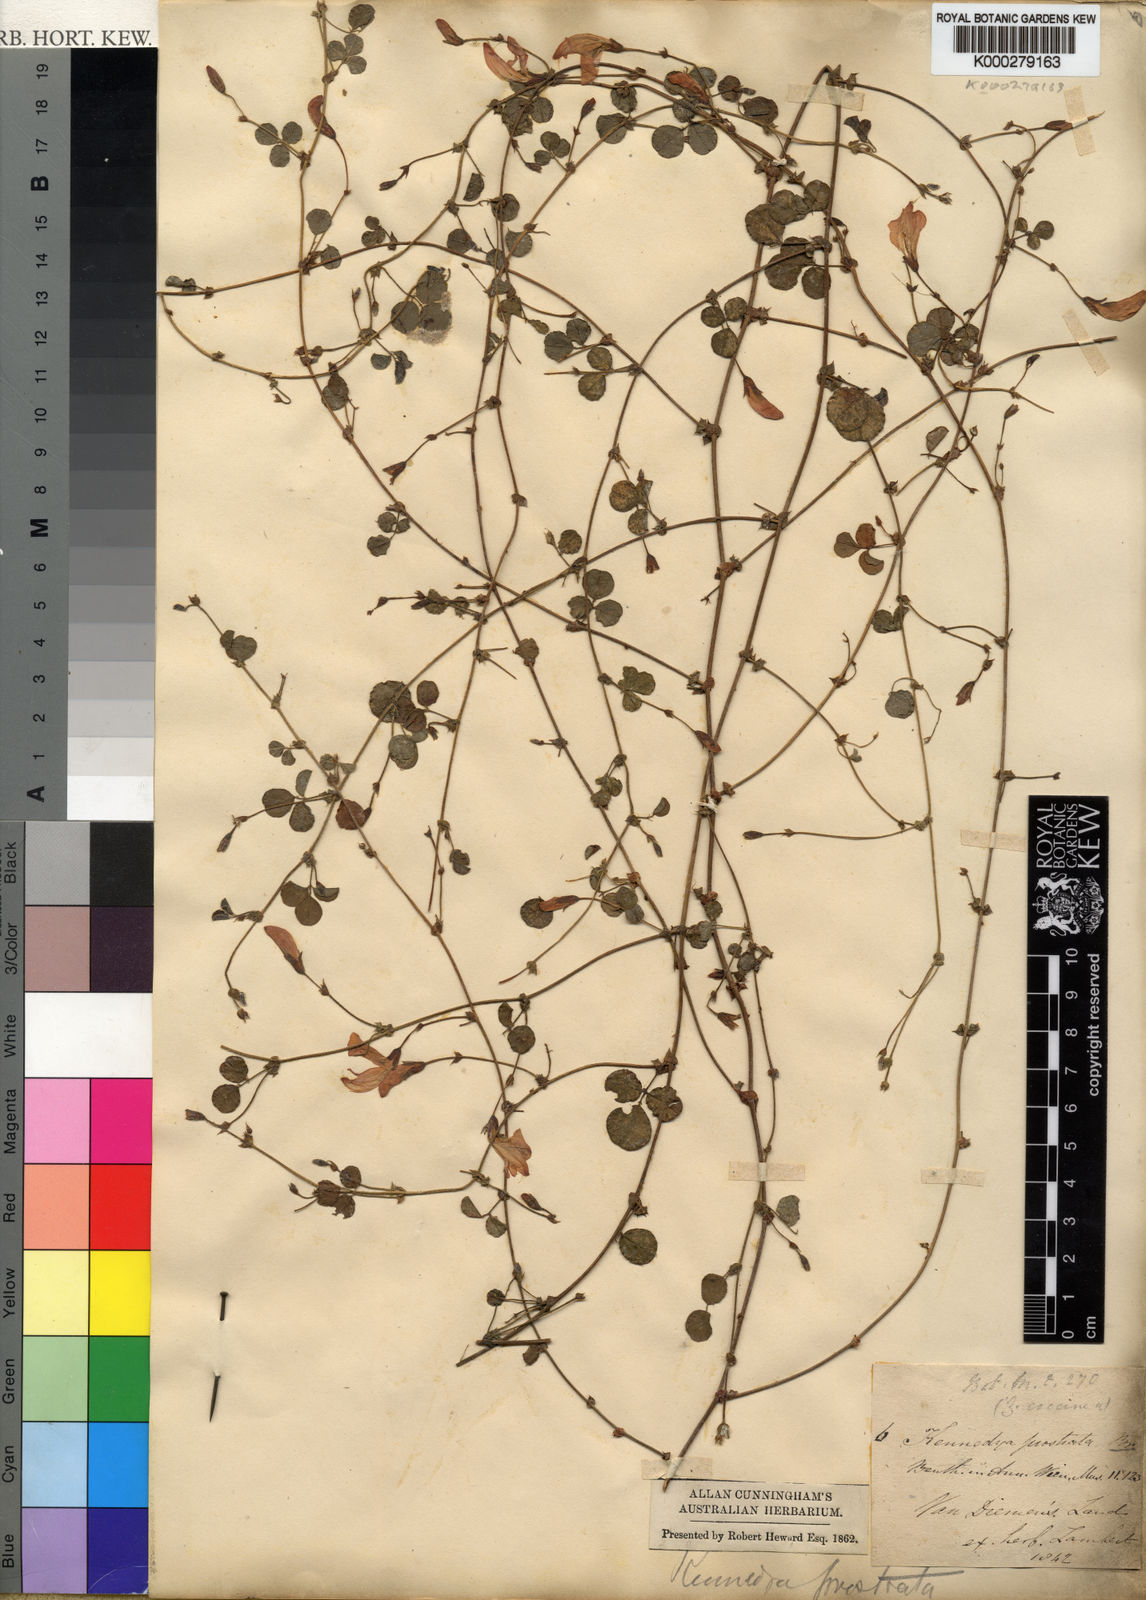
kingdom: Plantae
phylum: Tracheophyta
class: Magnoliopsida
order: Fabales
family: Fabaceae
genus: Kennedia
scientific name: Kennedia prostrata
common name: Running-postman
